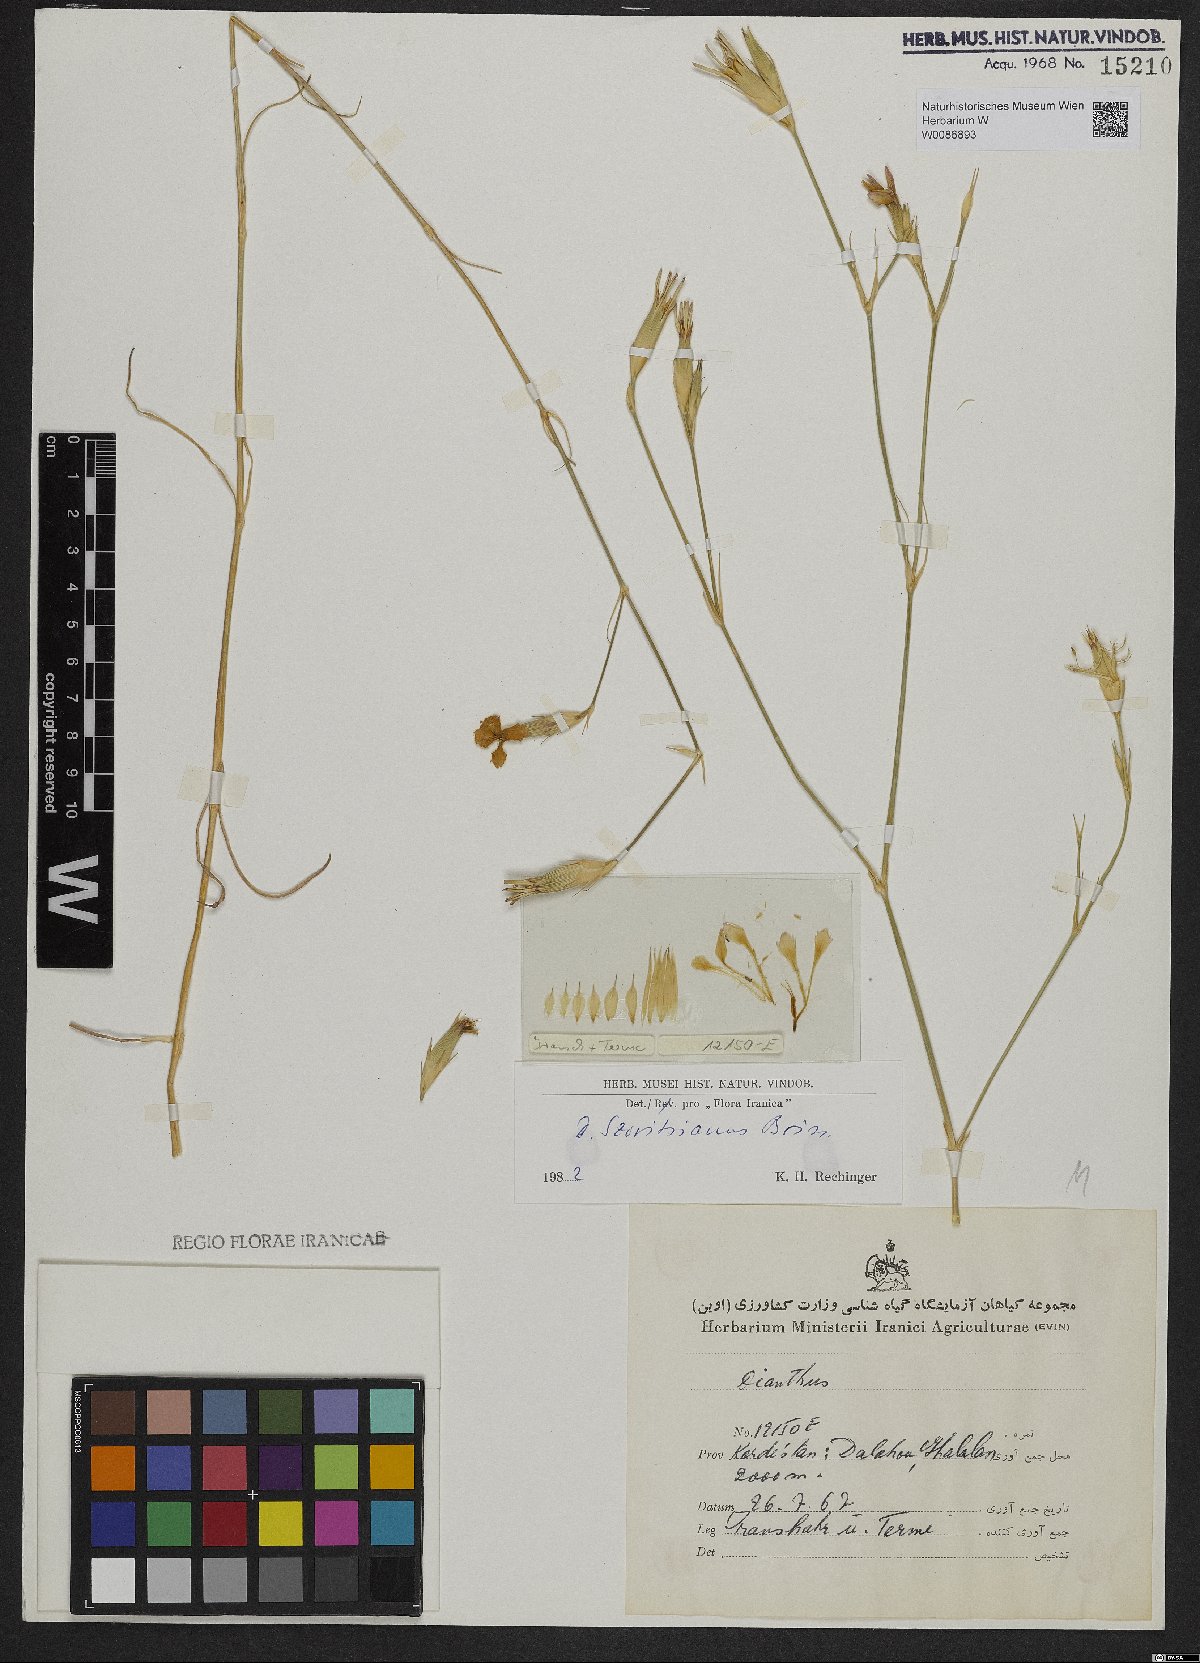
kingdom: Plantae
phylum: Tracheophyta
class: Magnoliopsida
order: Caryophyllales
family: Caryophyllaceae
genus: Dianthus
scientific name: Dianthus szowitsianus
